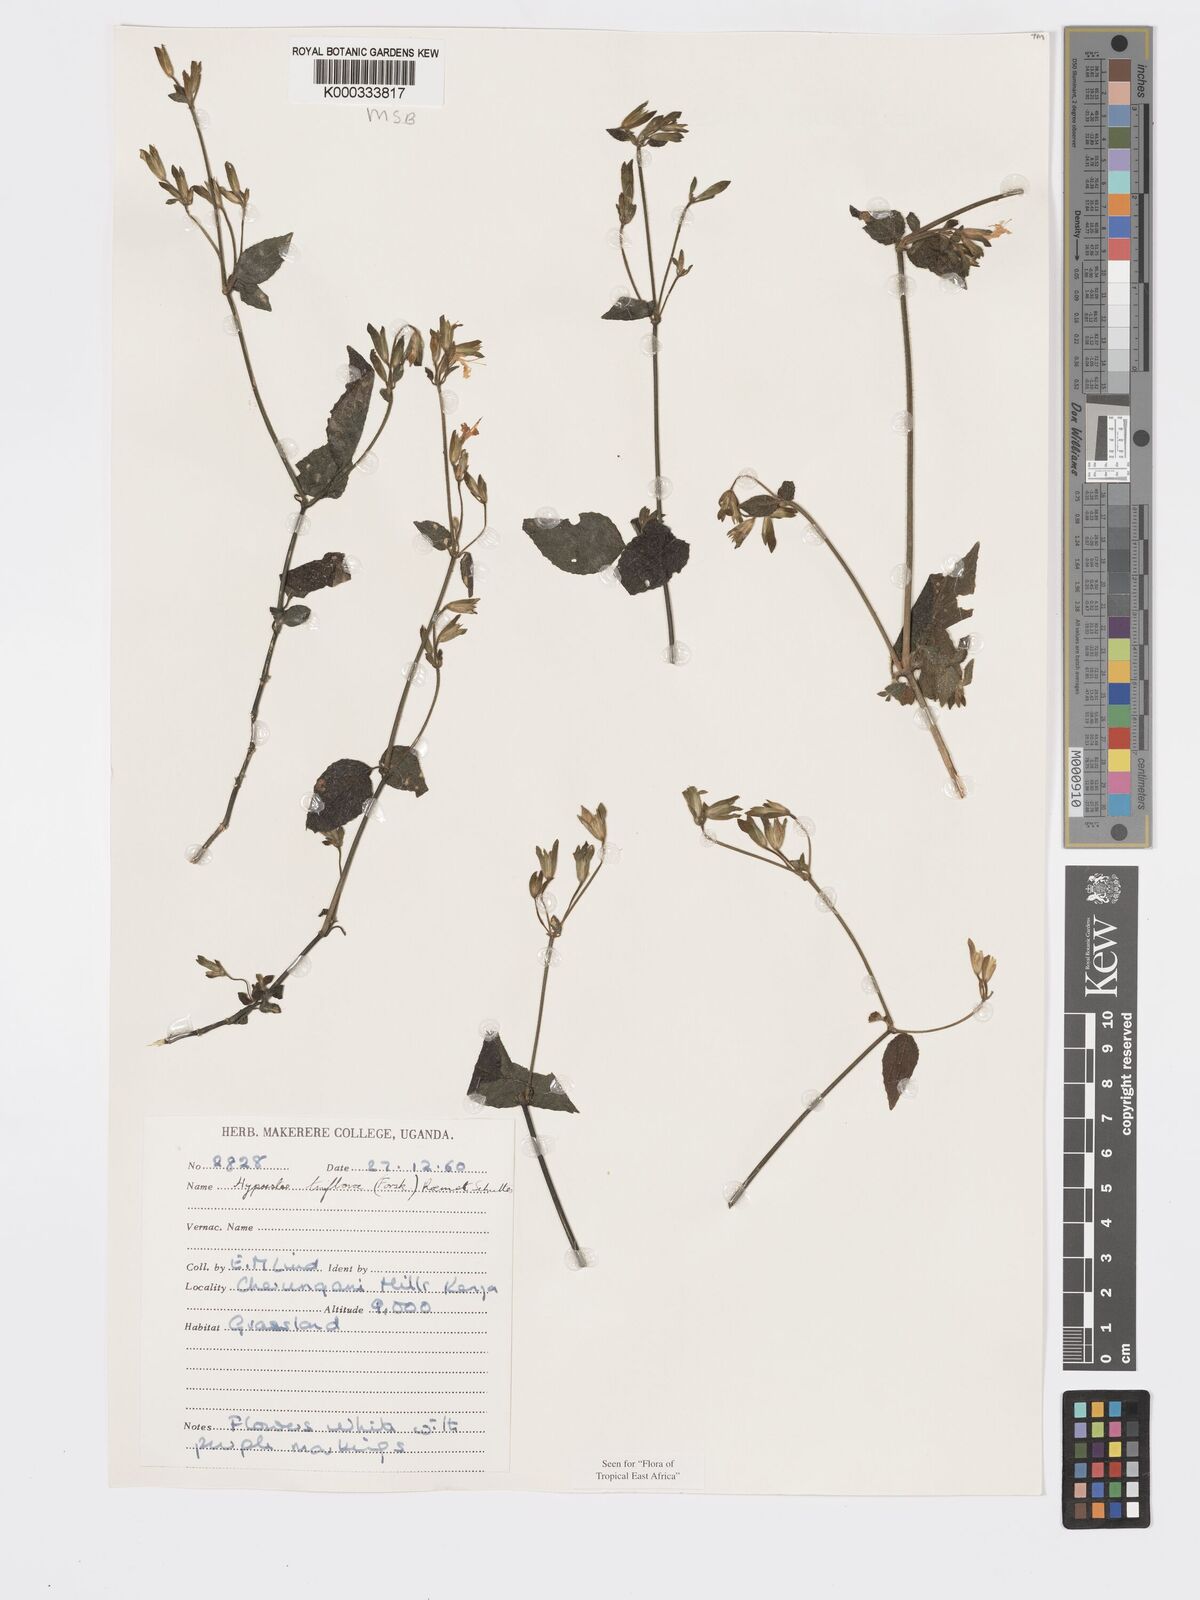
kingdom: Plantae
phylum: Tracheophyta
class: Magnoliopsida
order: Lamiales
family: Acanthaceae
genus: Hypoestes
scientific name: Hypoestes triflora
